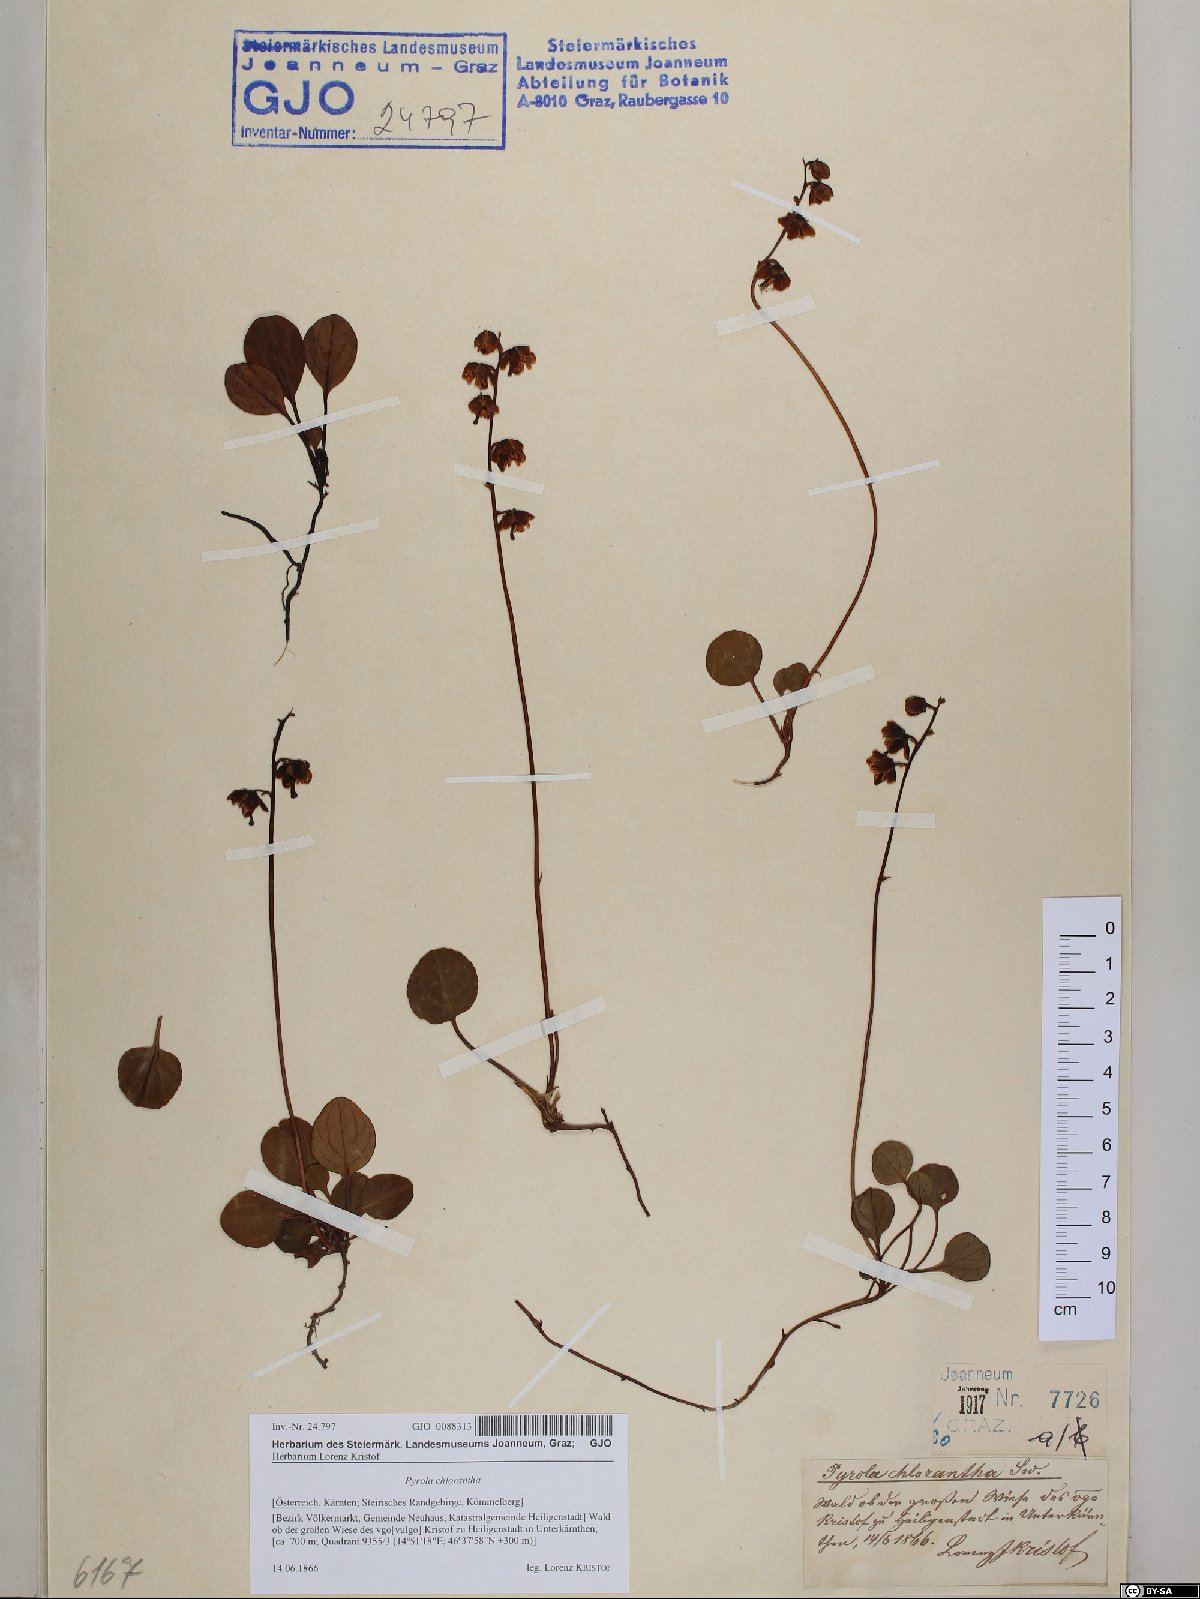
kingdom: Plantae
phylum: Tracheophyta
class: Magnoliopsida
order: Ericales
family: Ericaceae
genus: Pyrola
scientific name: Pyrola chlorantha
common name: Green wintergreen
